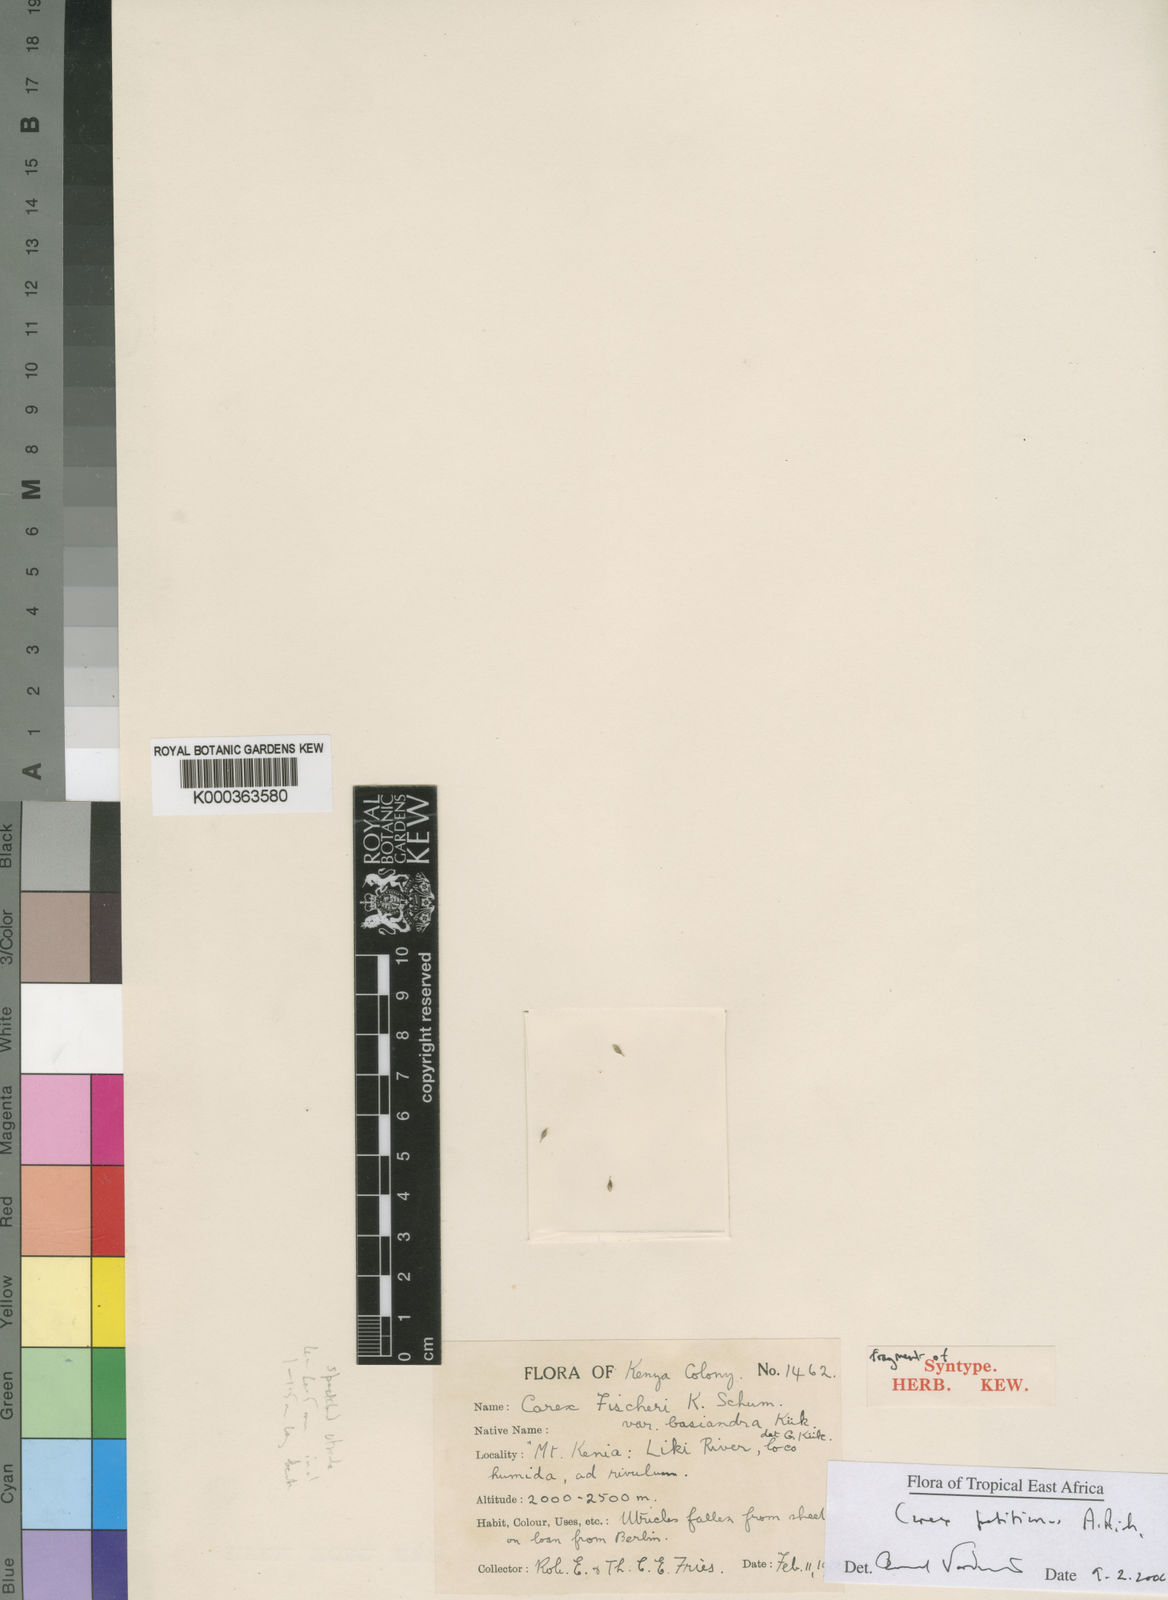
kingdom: Plantae
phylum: Tracheophyta
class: Liliopsida
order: Poales
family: Cyperaceae
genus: Carex
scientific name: Carex fischeri
